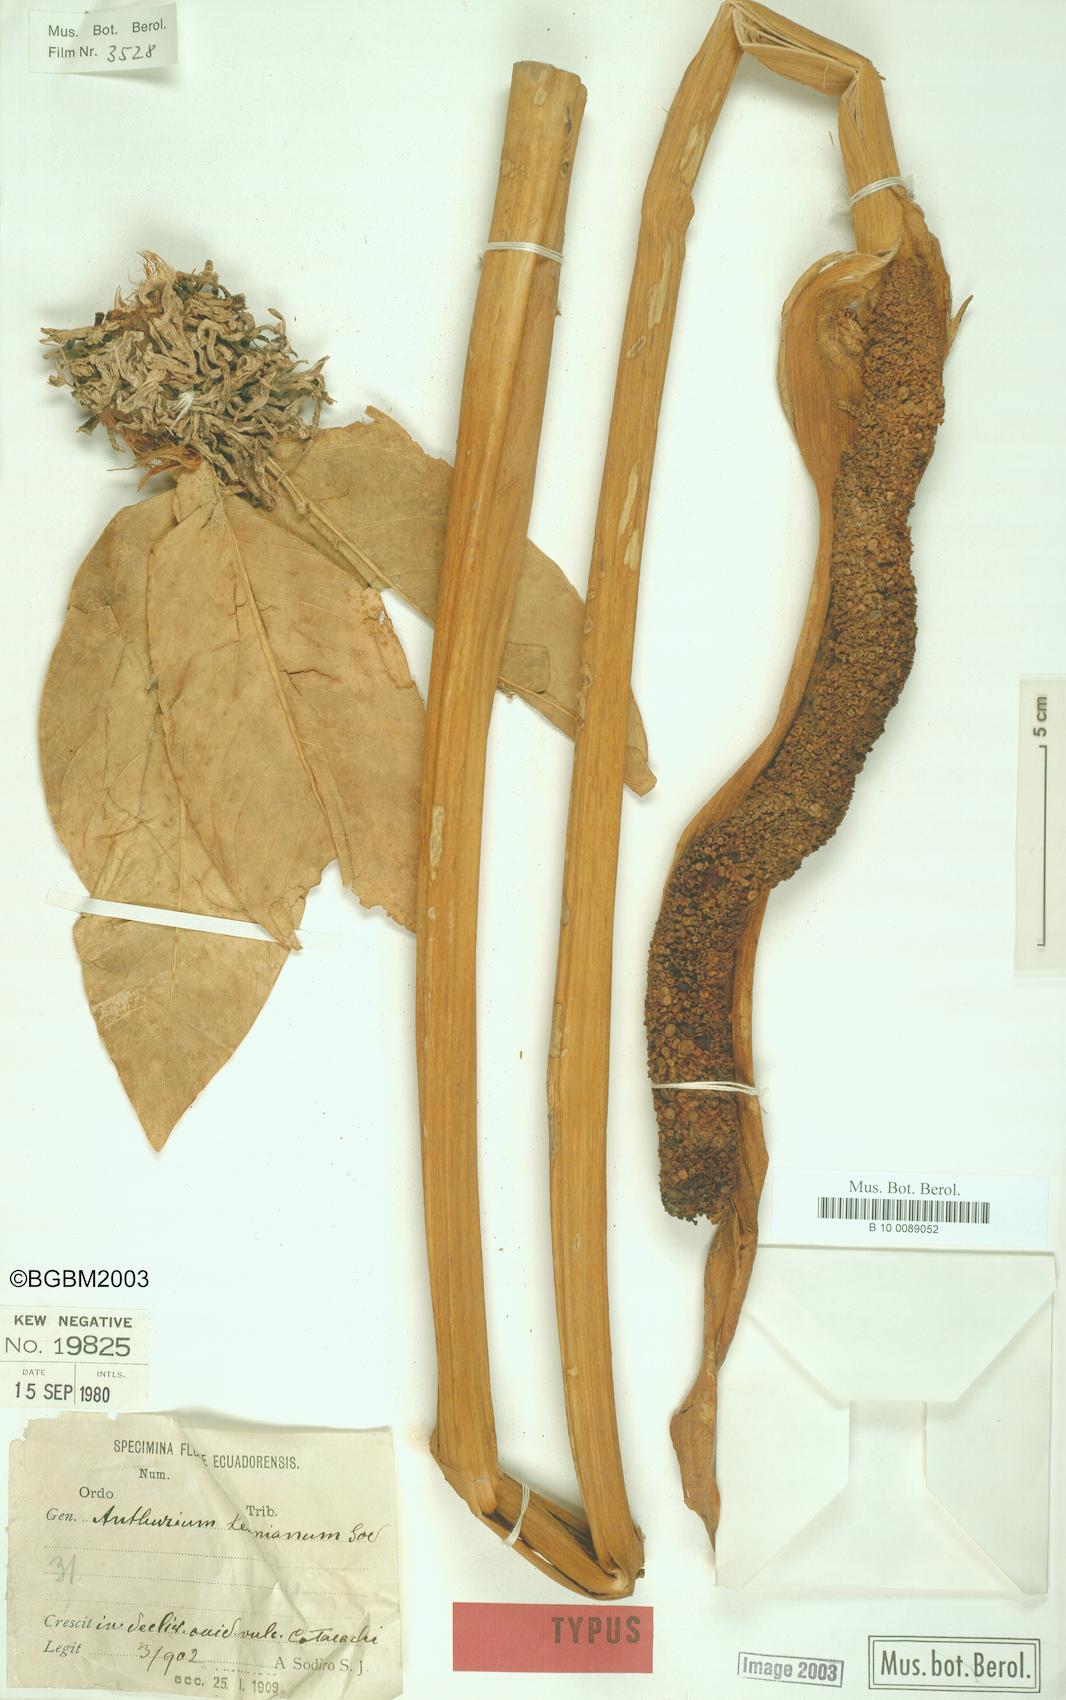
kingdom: Plantae
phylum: Tracheophyta
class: Liliopsida
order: Alismatales
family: Araceae
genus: Anthurium
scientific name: Anthurium leonianum
